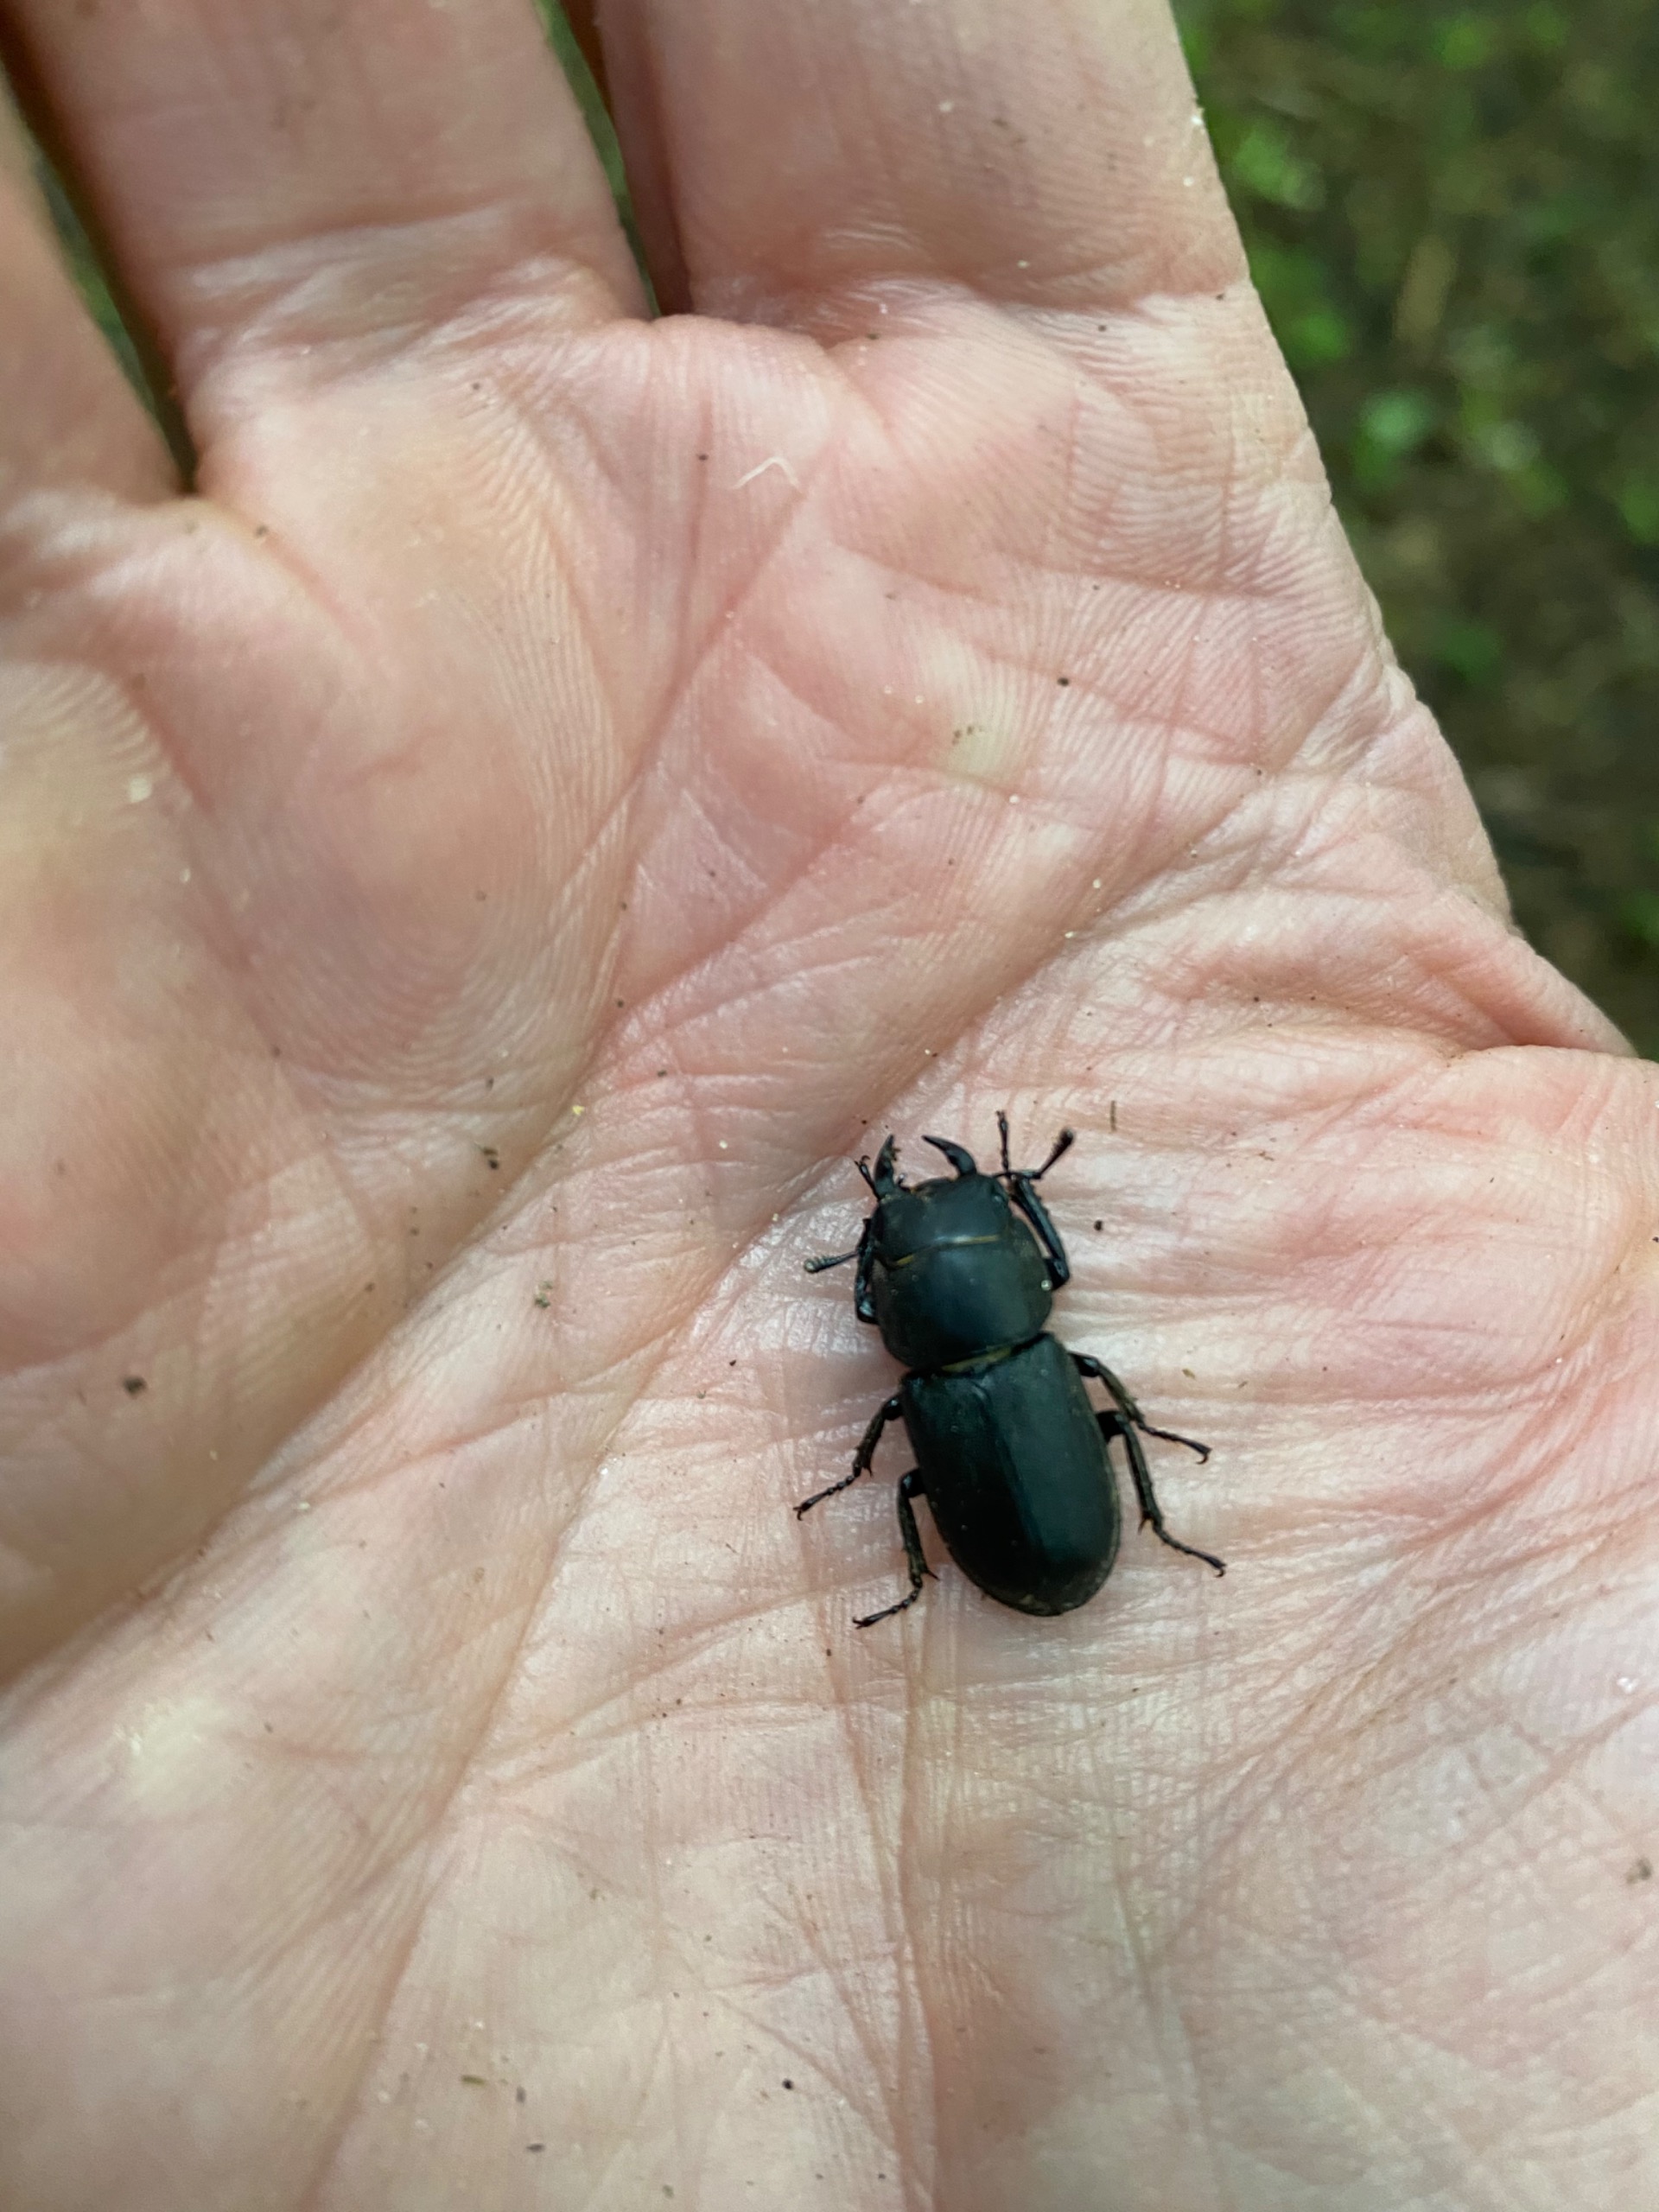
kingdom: Animalia
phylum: Arthropoda
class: Insecta
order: Coleoptera
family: Lucanidae
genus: Dorcus
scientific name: Dorcus parallelipipedus
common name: Bøghjort
